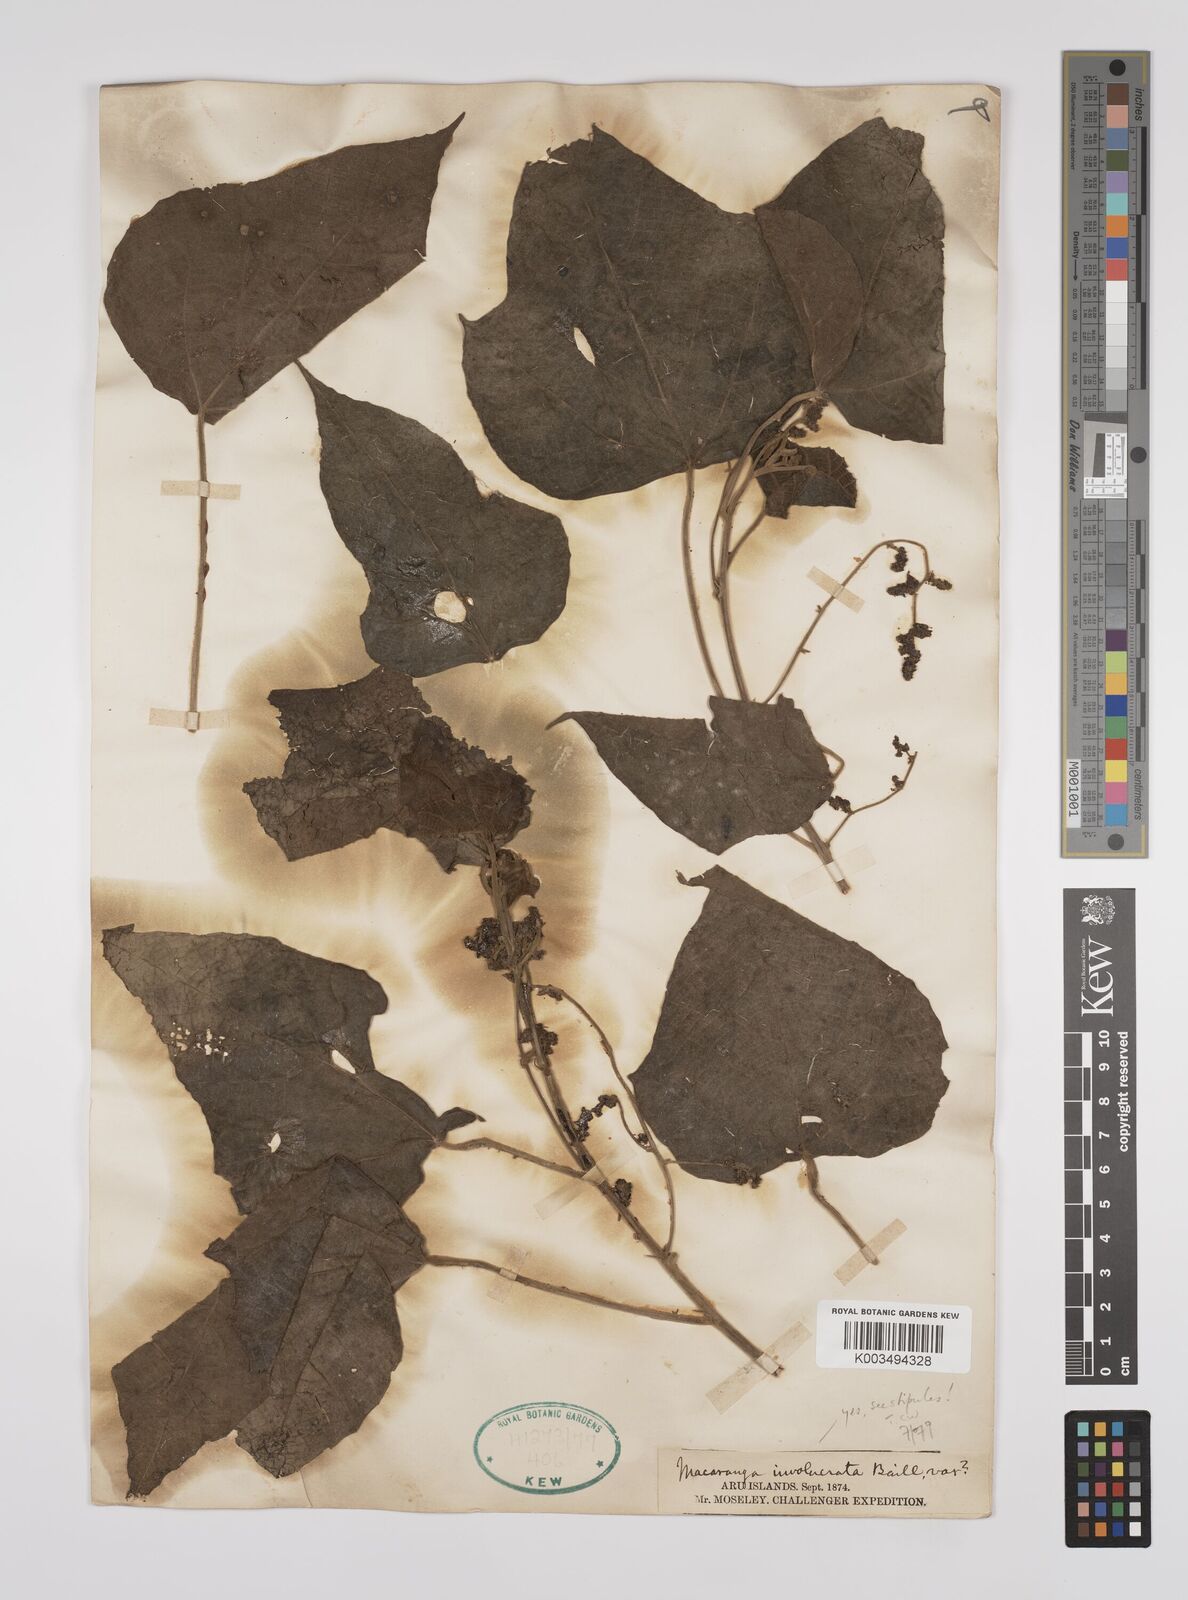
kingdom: Plantae
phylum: Tracheophyta
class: Magnoliopsida
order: Malpighiales
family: Euphorbiaceae
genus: Macaranga
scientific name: Macaranga involucrata
